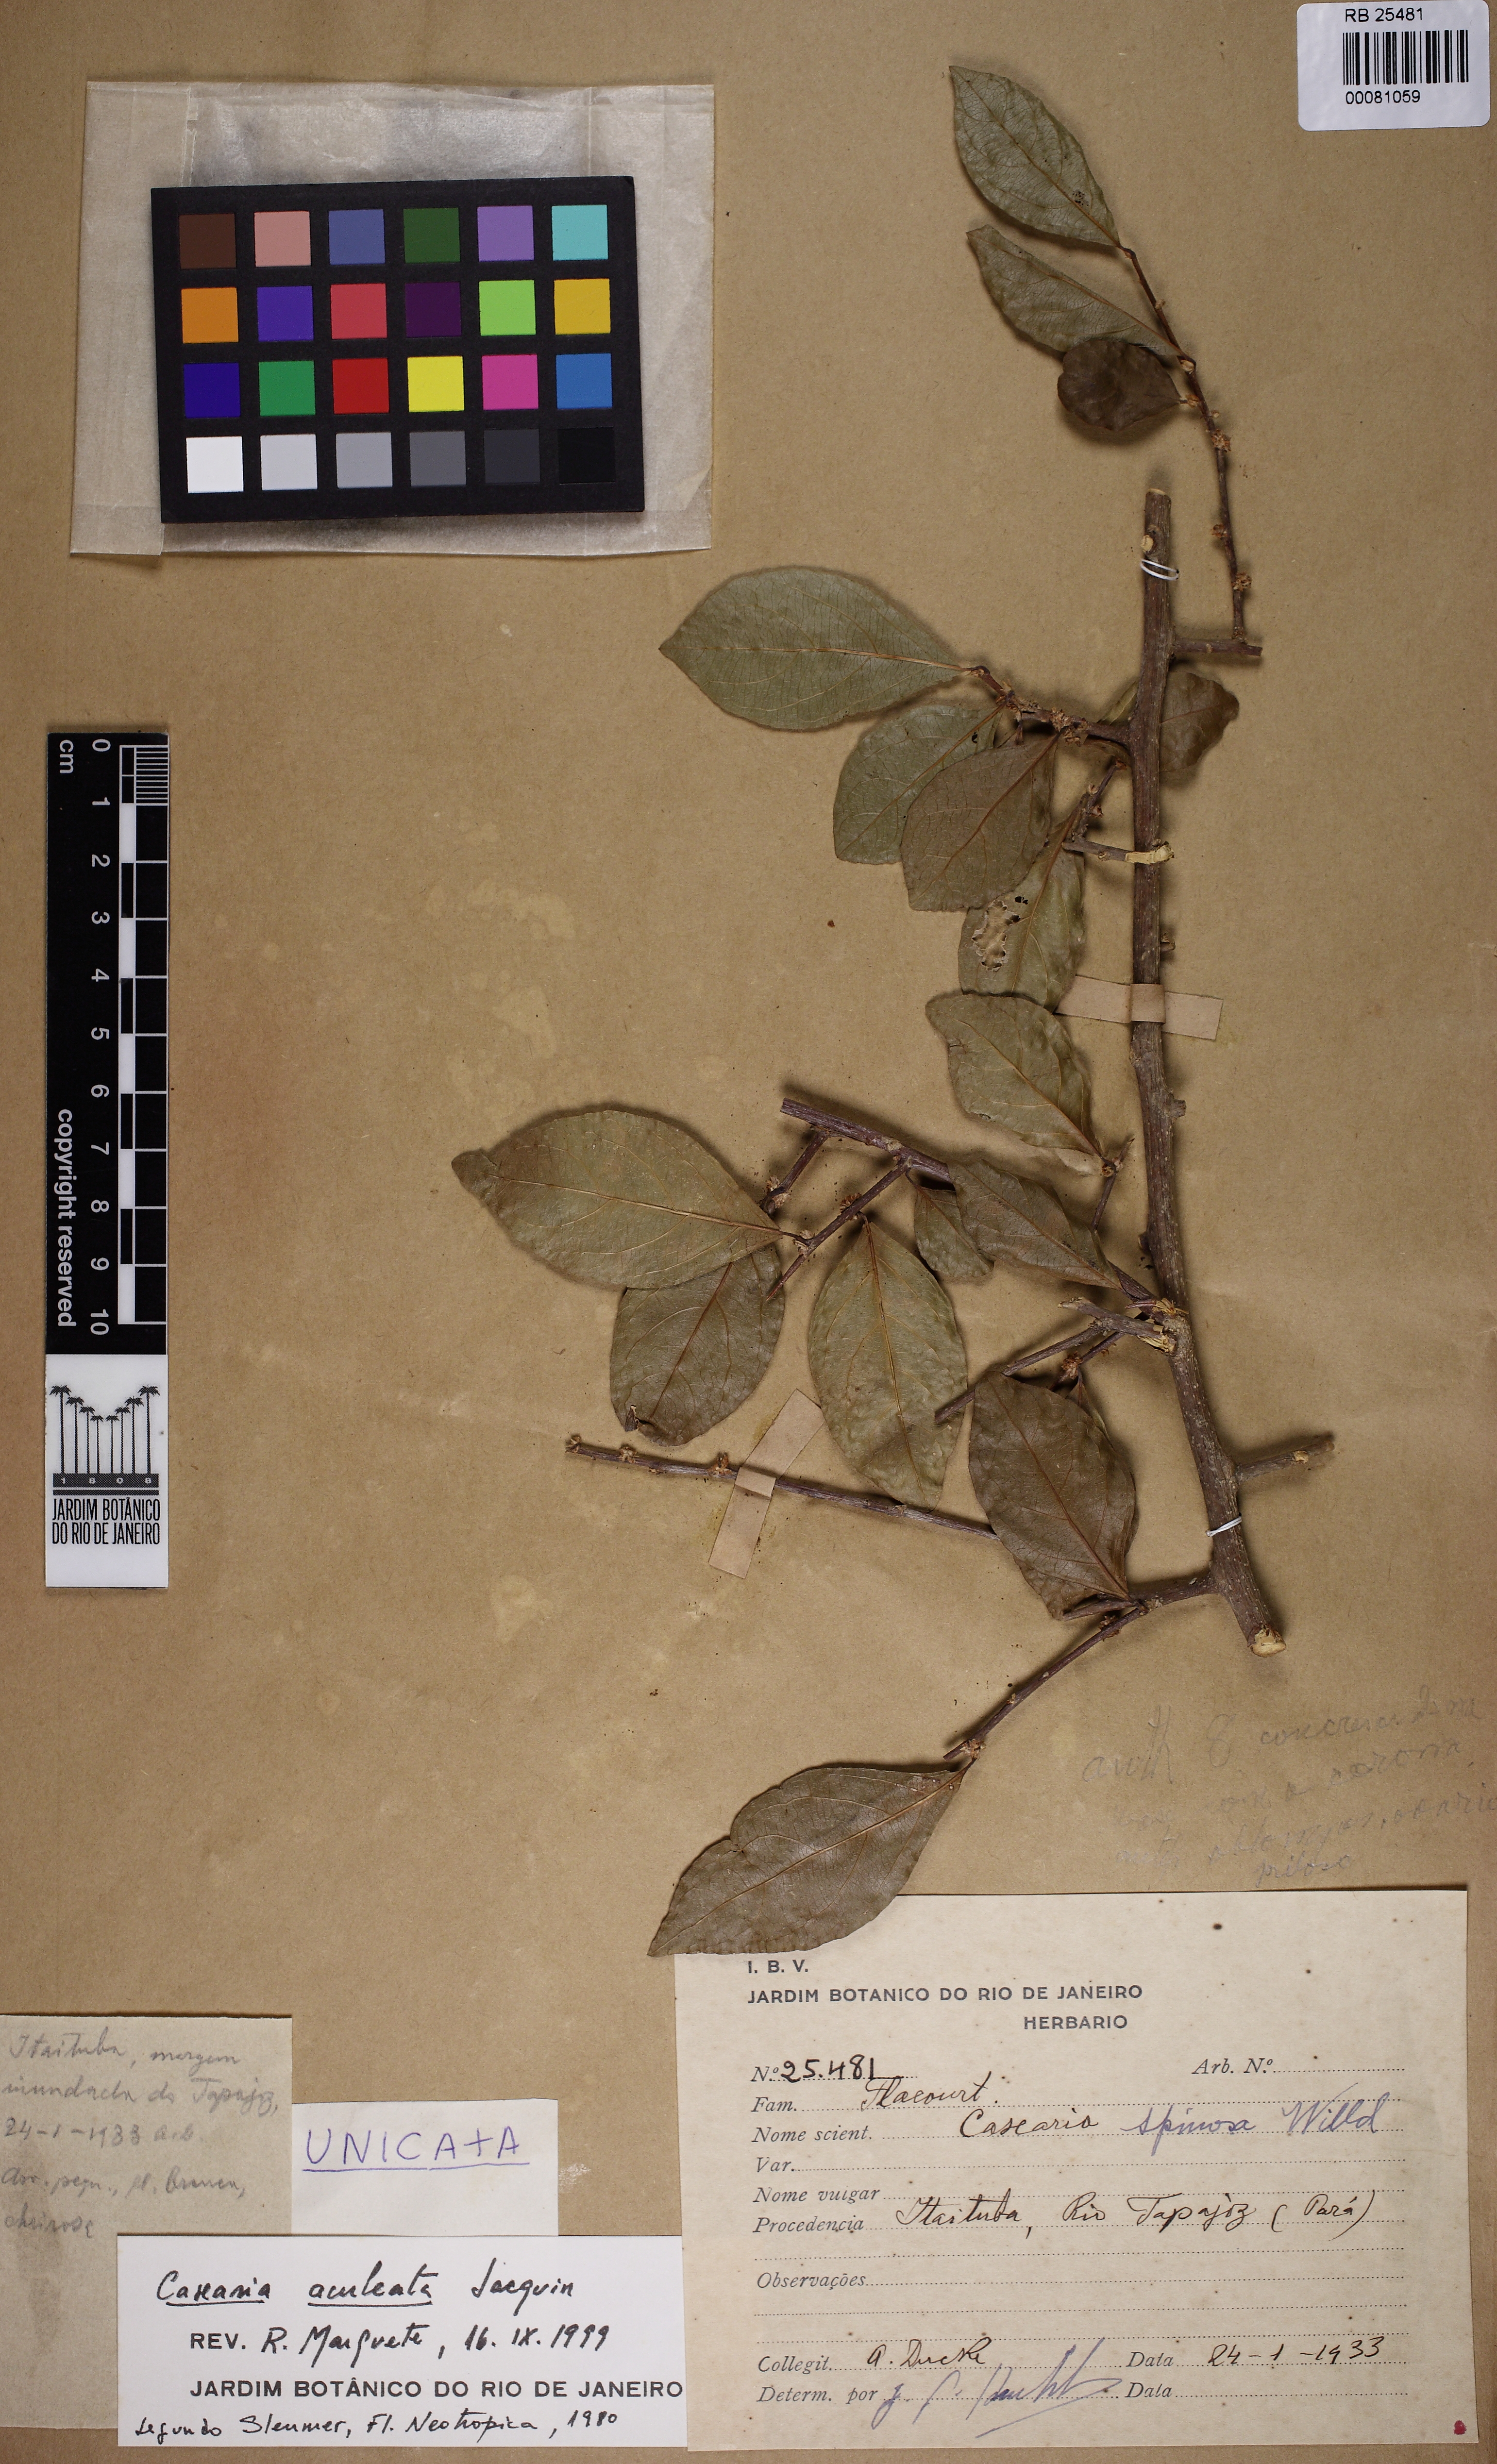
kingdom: Plantae
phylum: Tracheophyta
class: Magnoliopsida
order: Malpighiales
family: Salicaceae
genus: Casearia
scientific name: Casearia aculeata
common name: Cockspur
